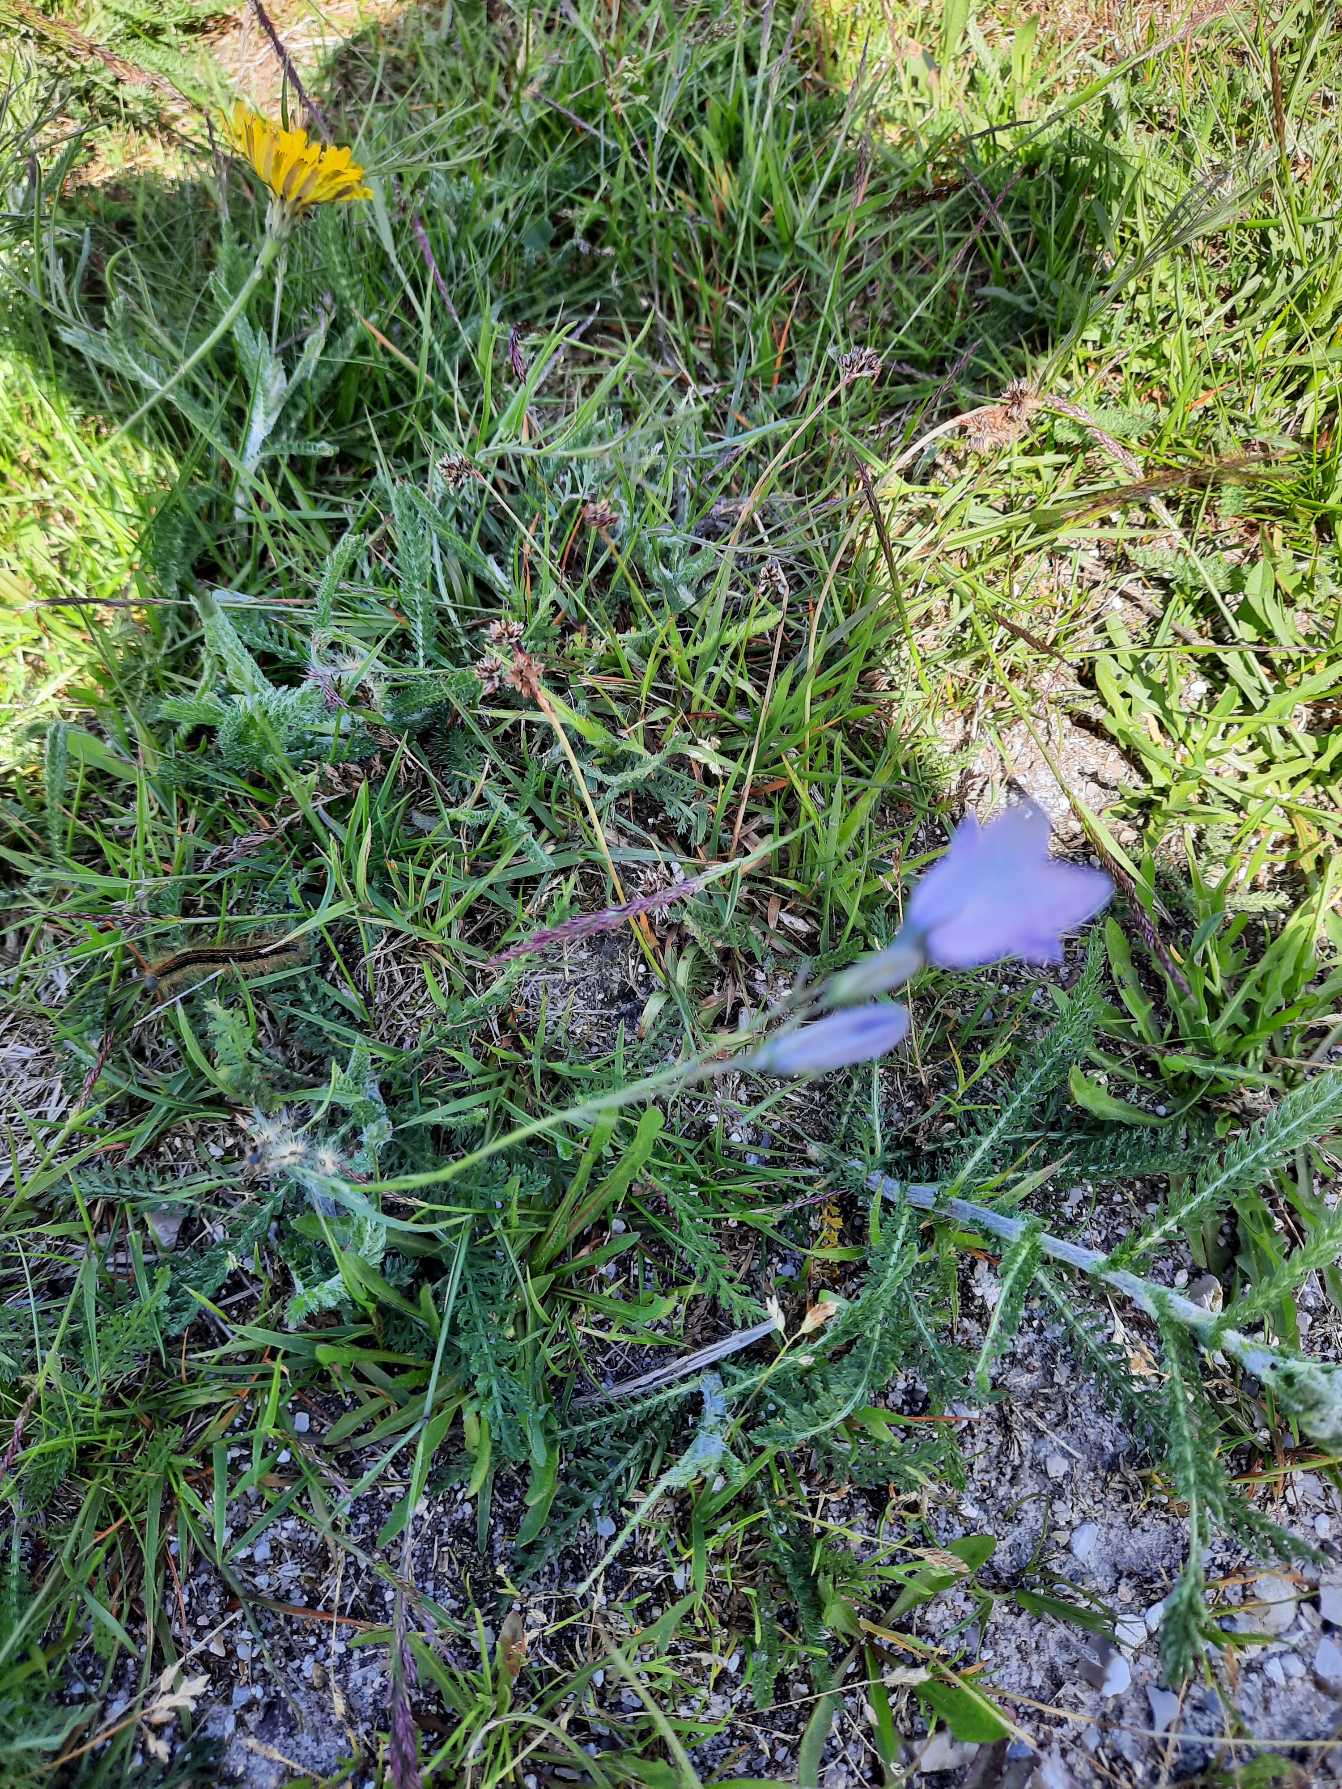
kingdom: Plantae
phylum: Tracheophyta
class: Magnoliopsida
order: Asterales
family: Campanulaceae
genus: Campanula
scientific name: Campanula rotundifolia
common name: Liden klokke
